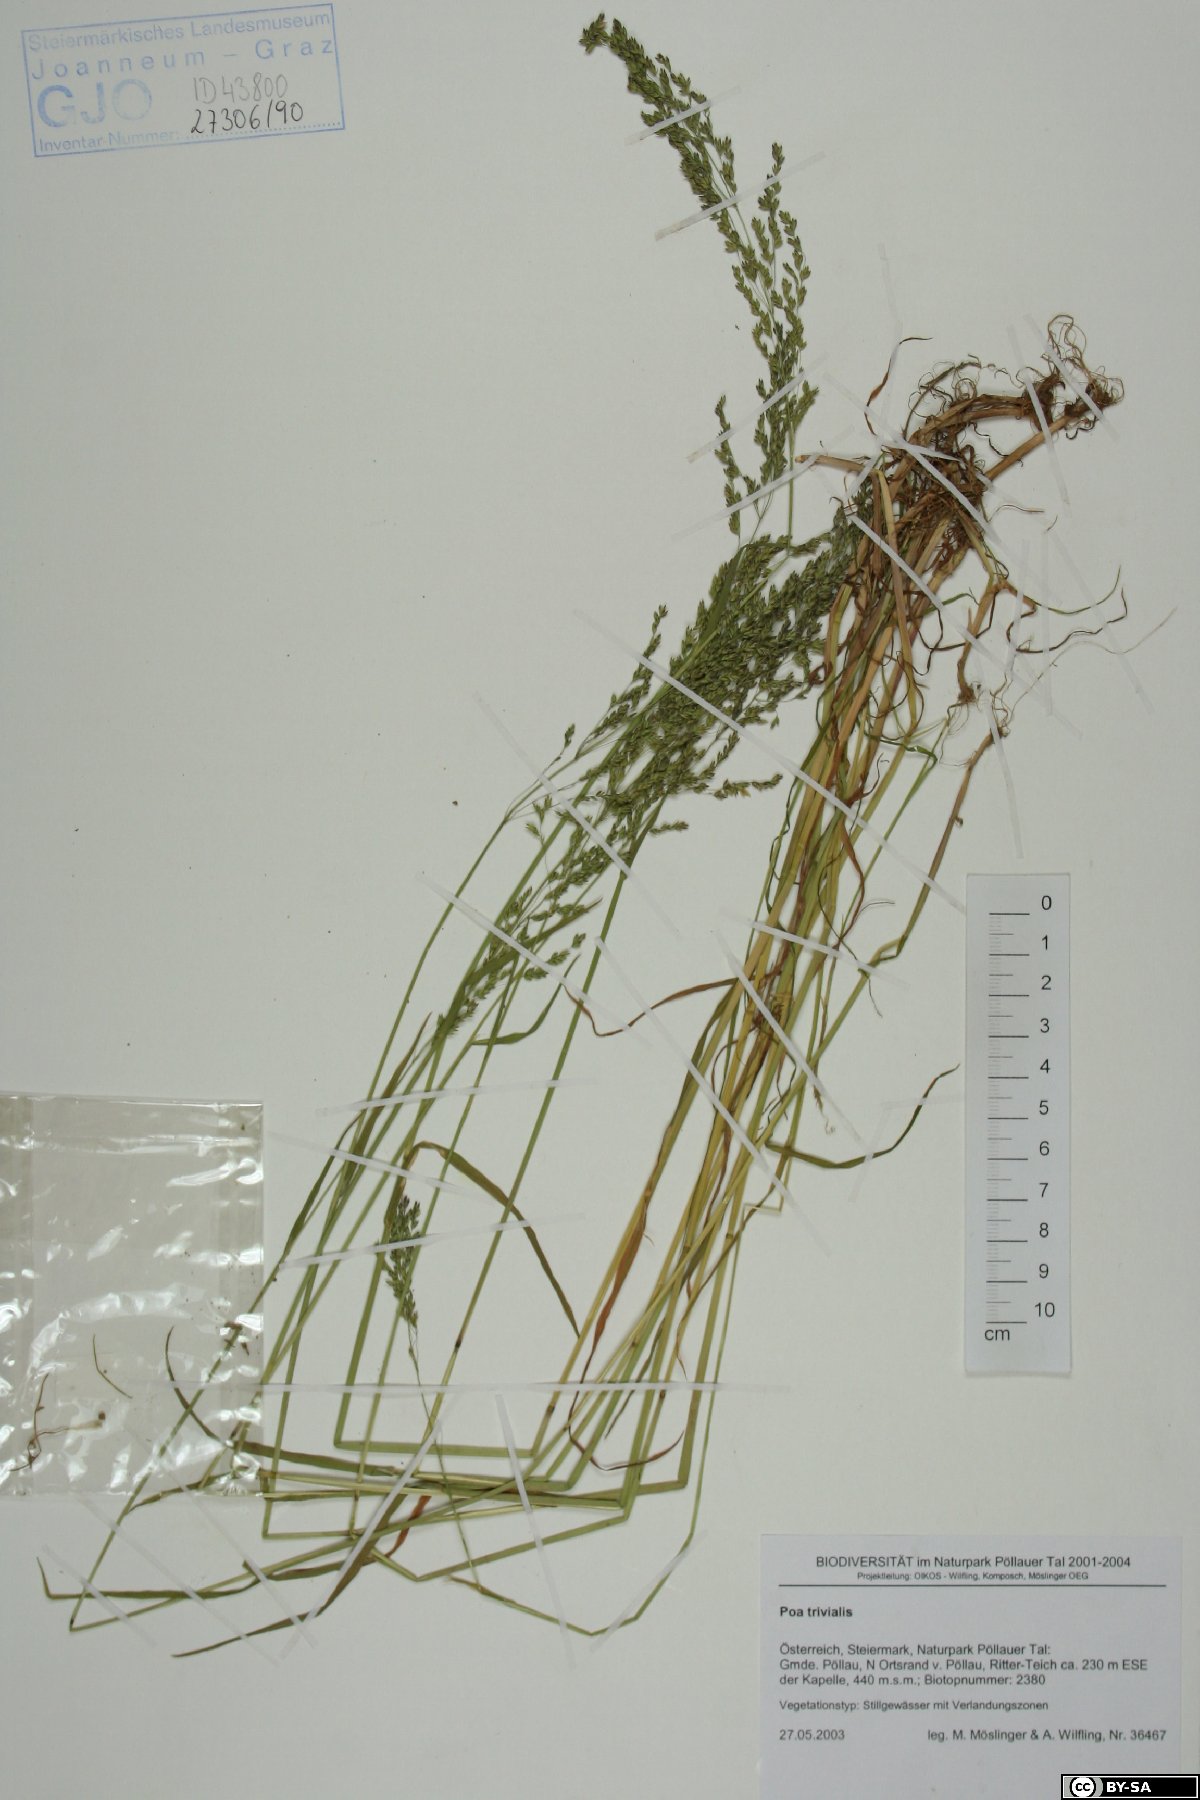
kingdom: Plantae
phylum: Tracheophyta
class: Liliopsida
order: Poales
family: Poaceae
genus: Poa
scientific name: Poa trivialis
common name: Rough bluegrass
